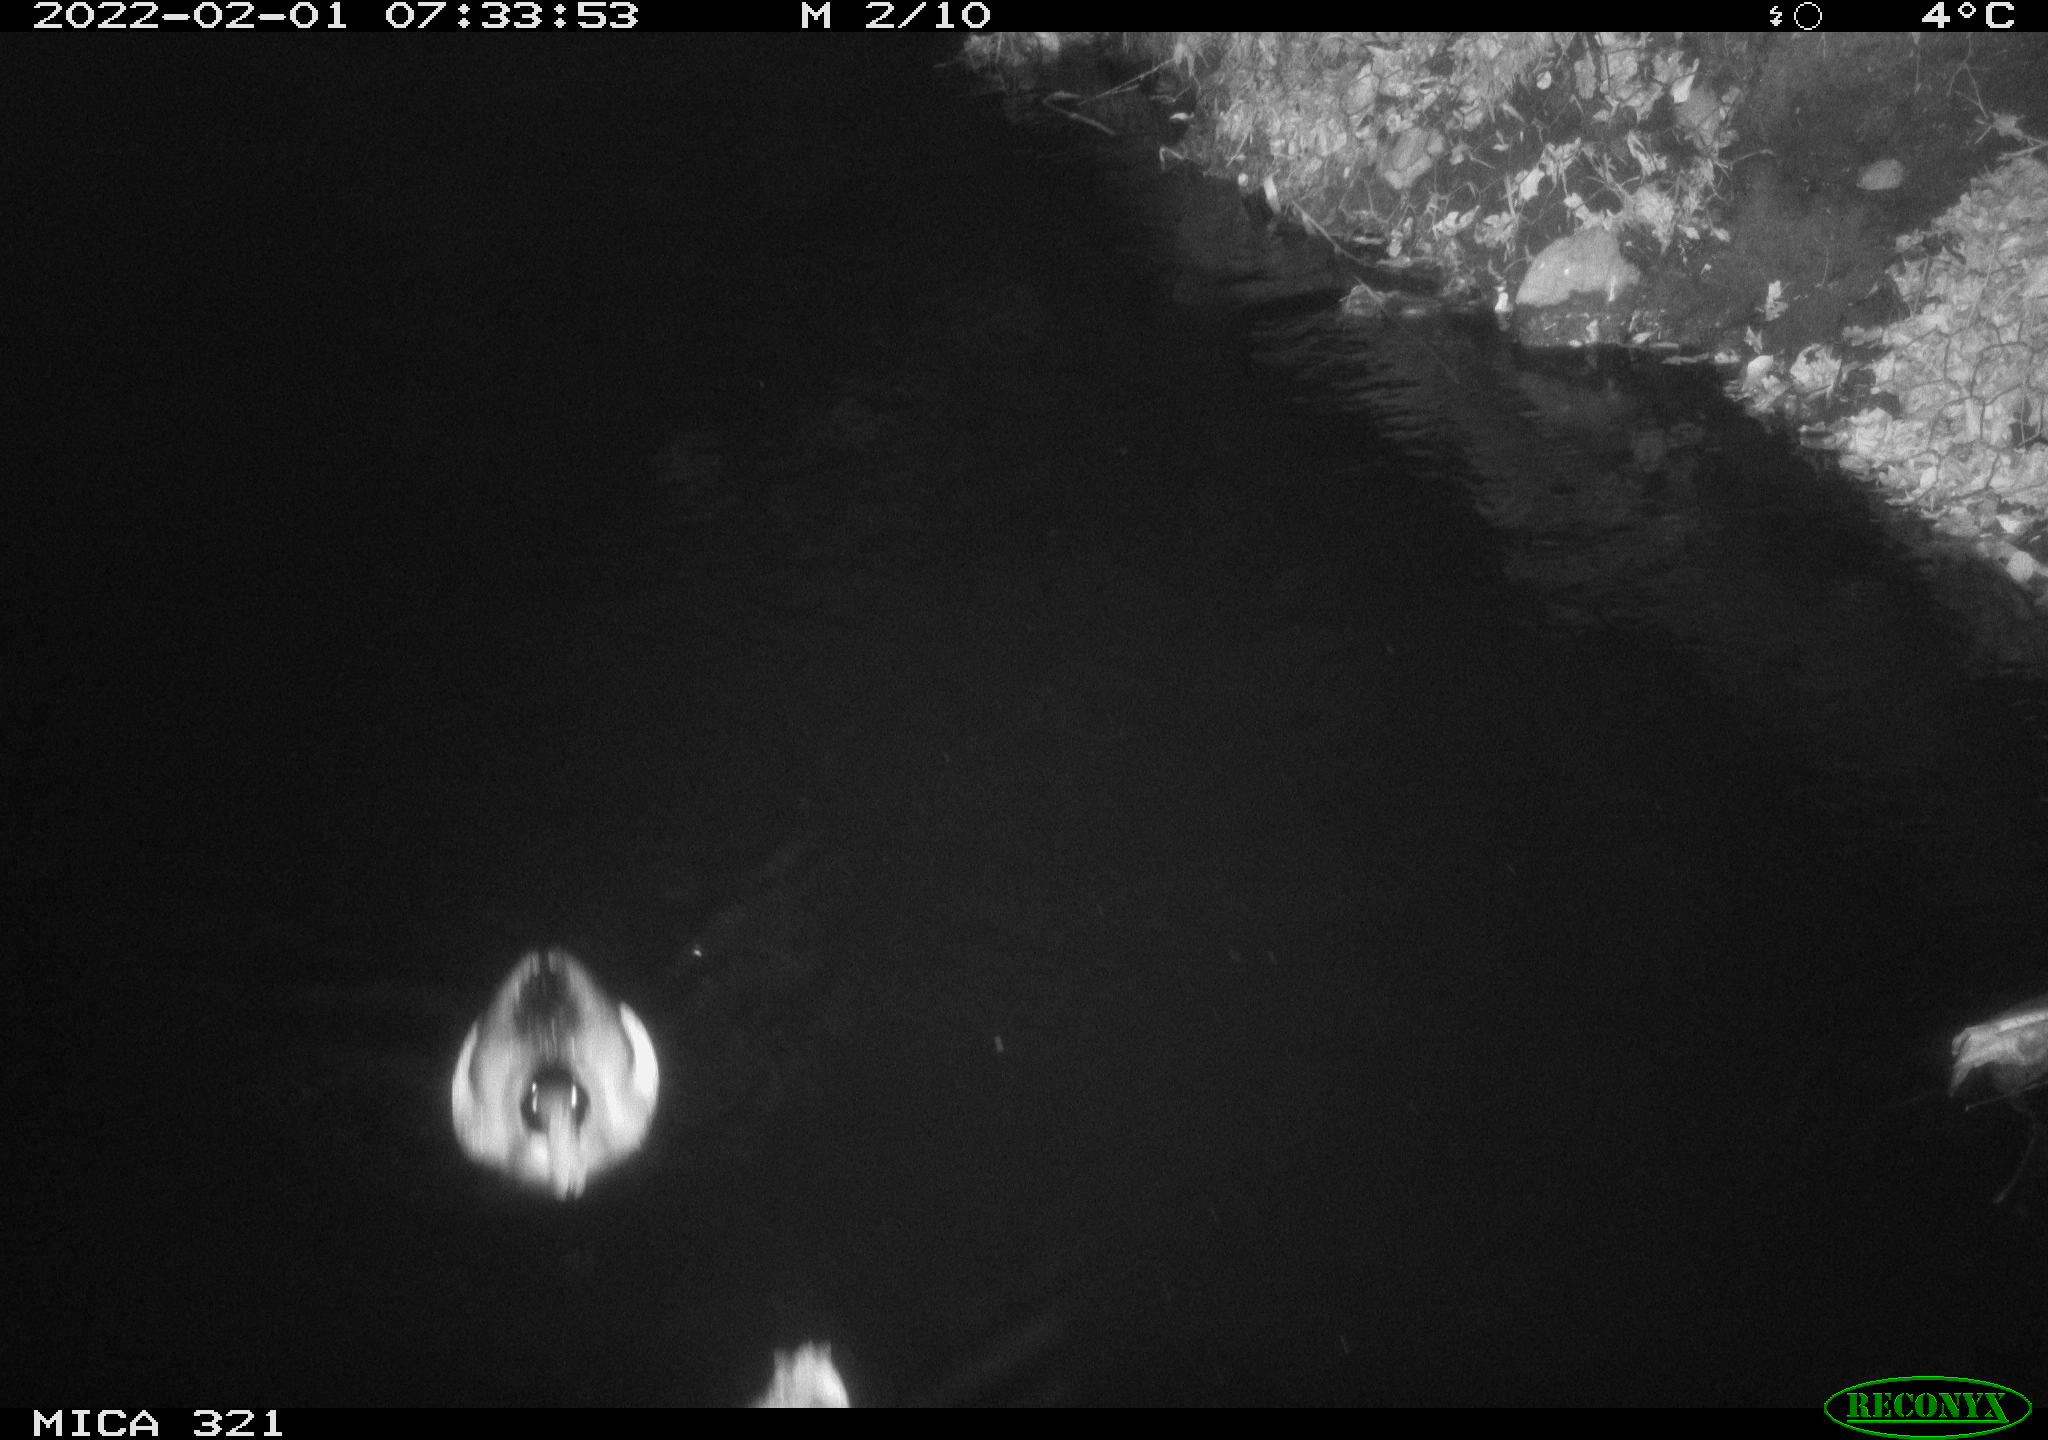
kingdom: Animalia
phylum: Chordata
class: Aves
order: Anseriformes
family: Anatidae
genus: Anas
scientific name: Anas
